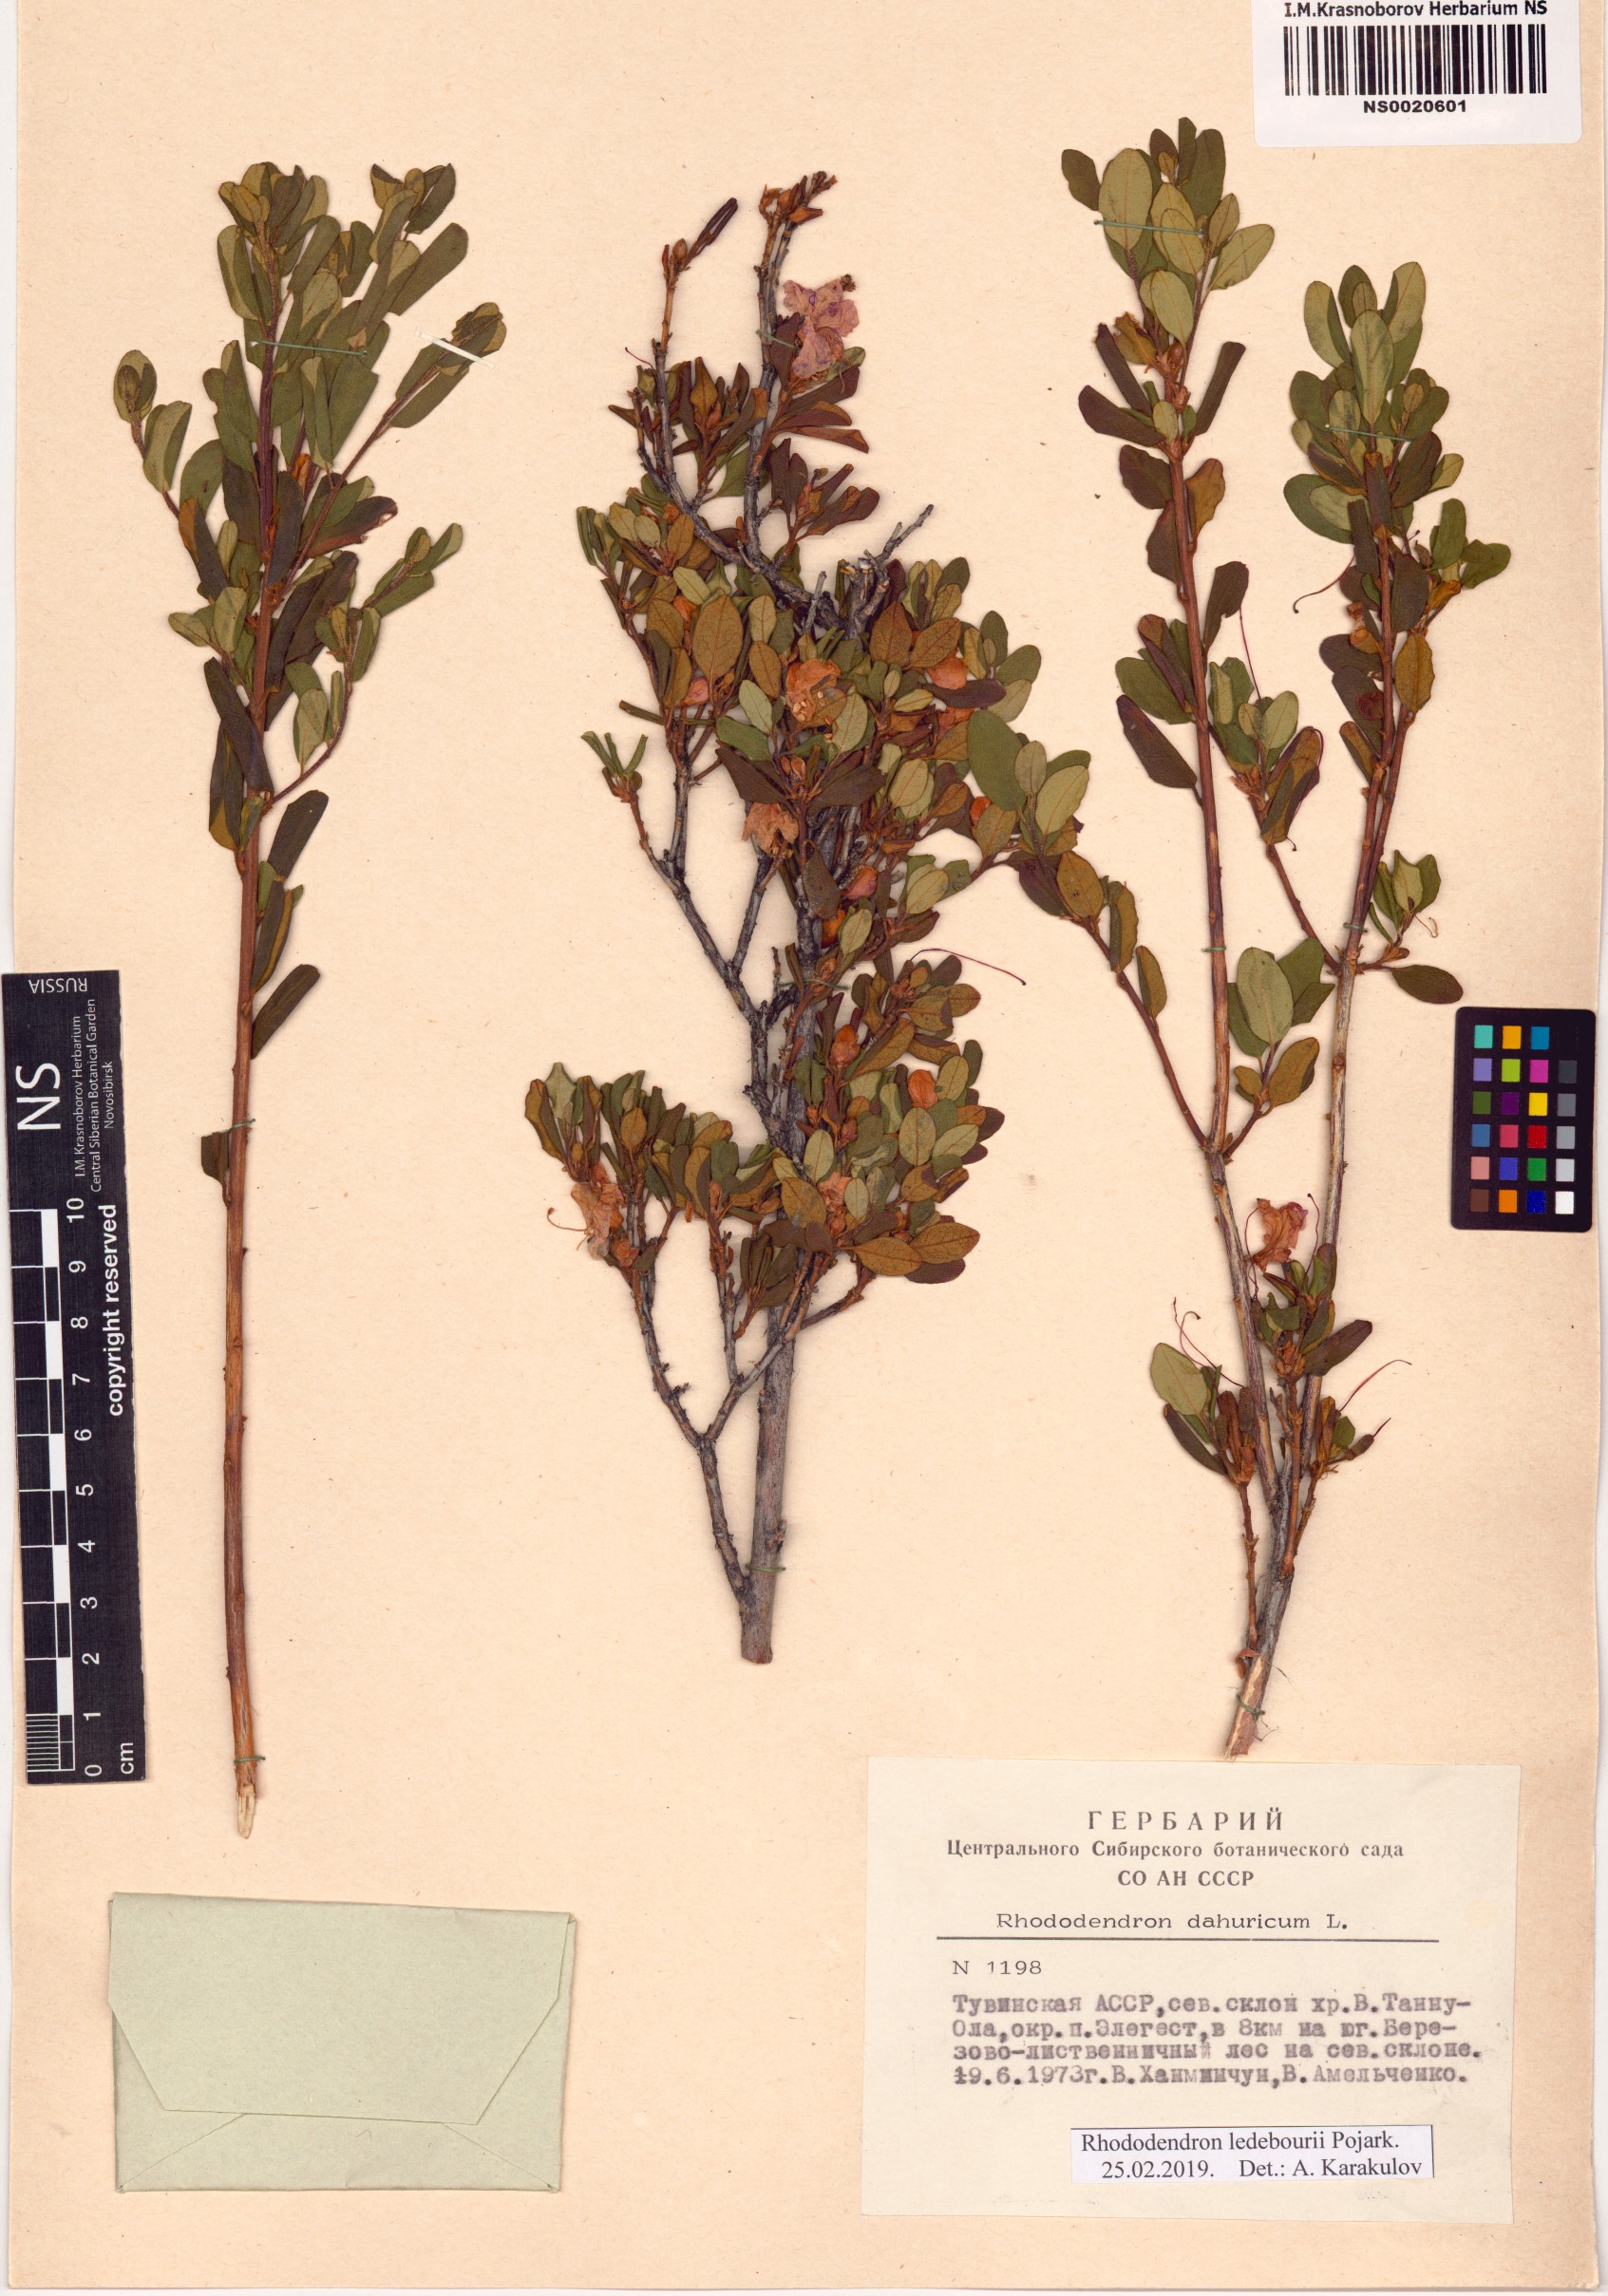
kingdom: Plantae
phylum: Tracheophyta
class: Magnoliopsida
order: Ericales
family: Ericaceae
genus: Rhododendron
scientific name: Rhododendron dauricum
